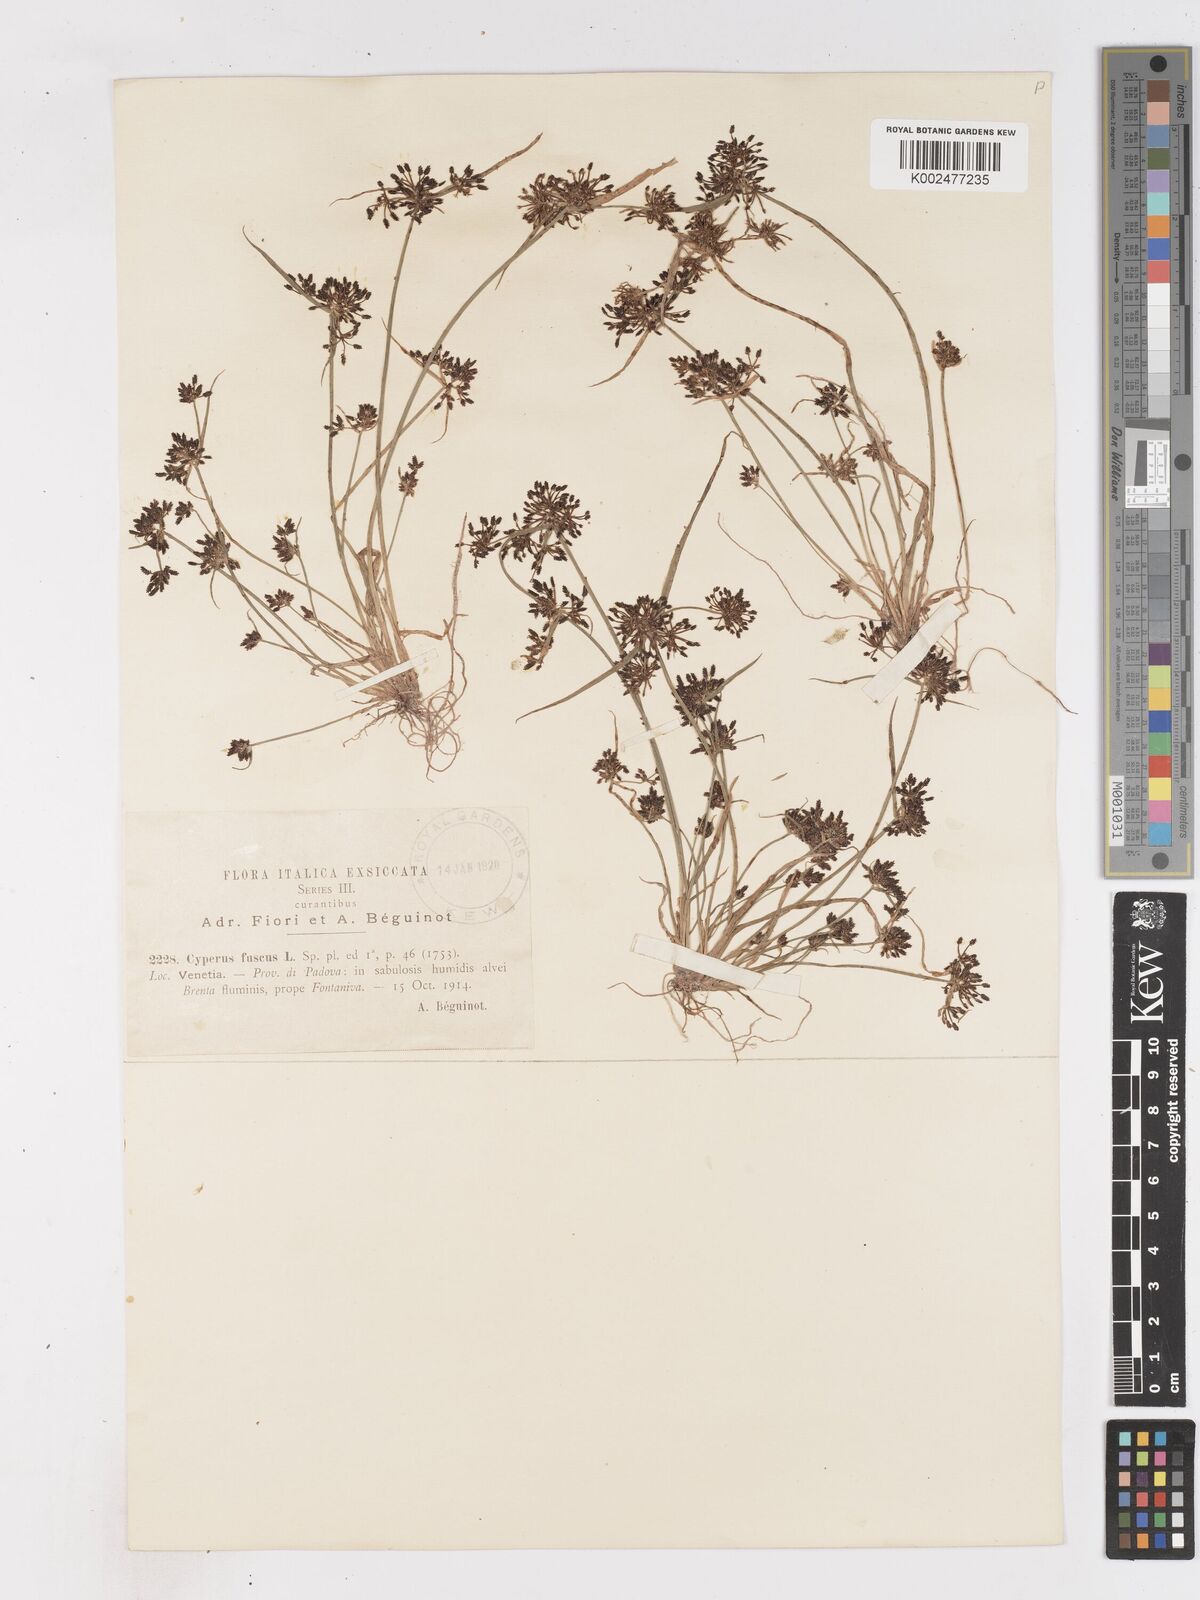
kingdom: Plantae
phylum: Tracheophyta
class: Liliopsida
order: Poales
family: Cyperaceae
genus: Cyperus
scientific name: Cyperus fuscus
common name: Brown galingale
